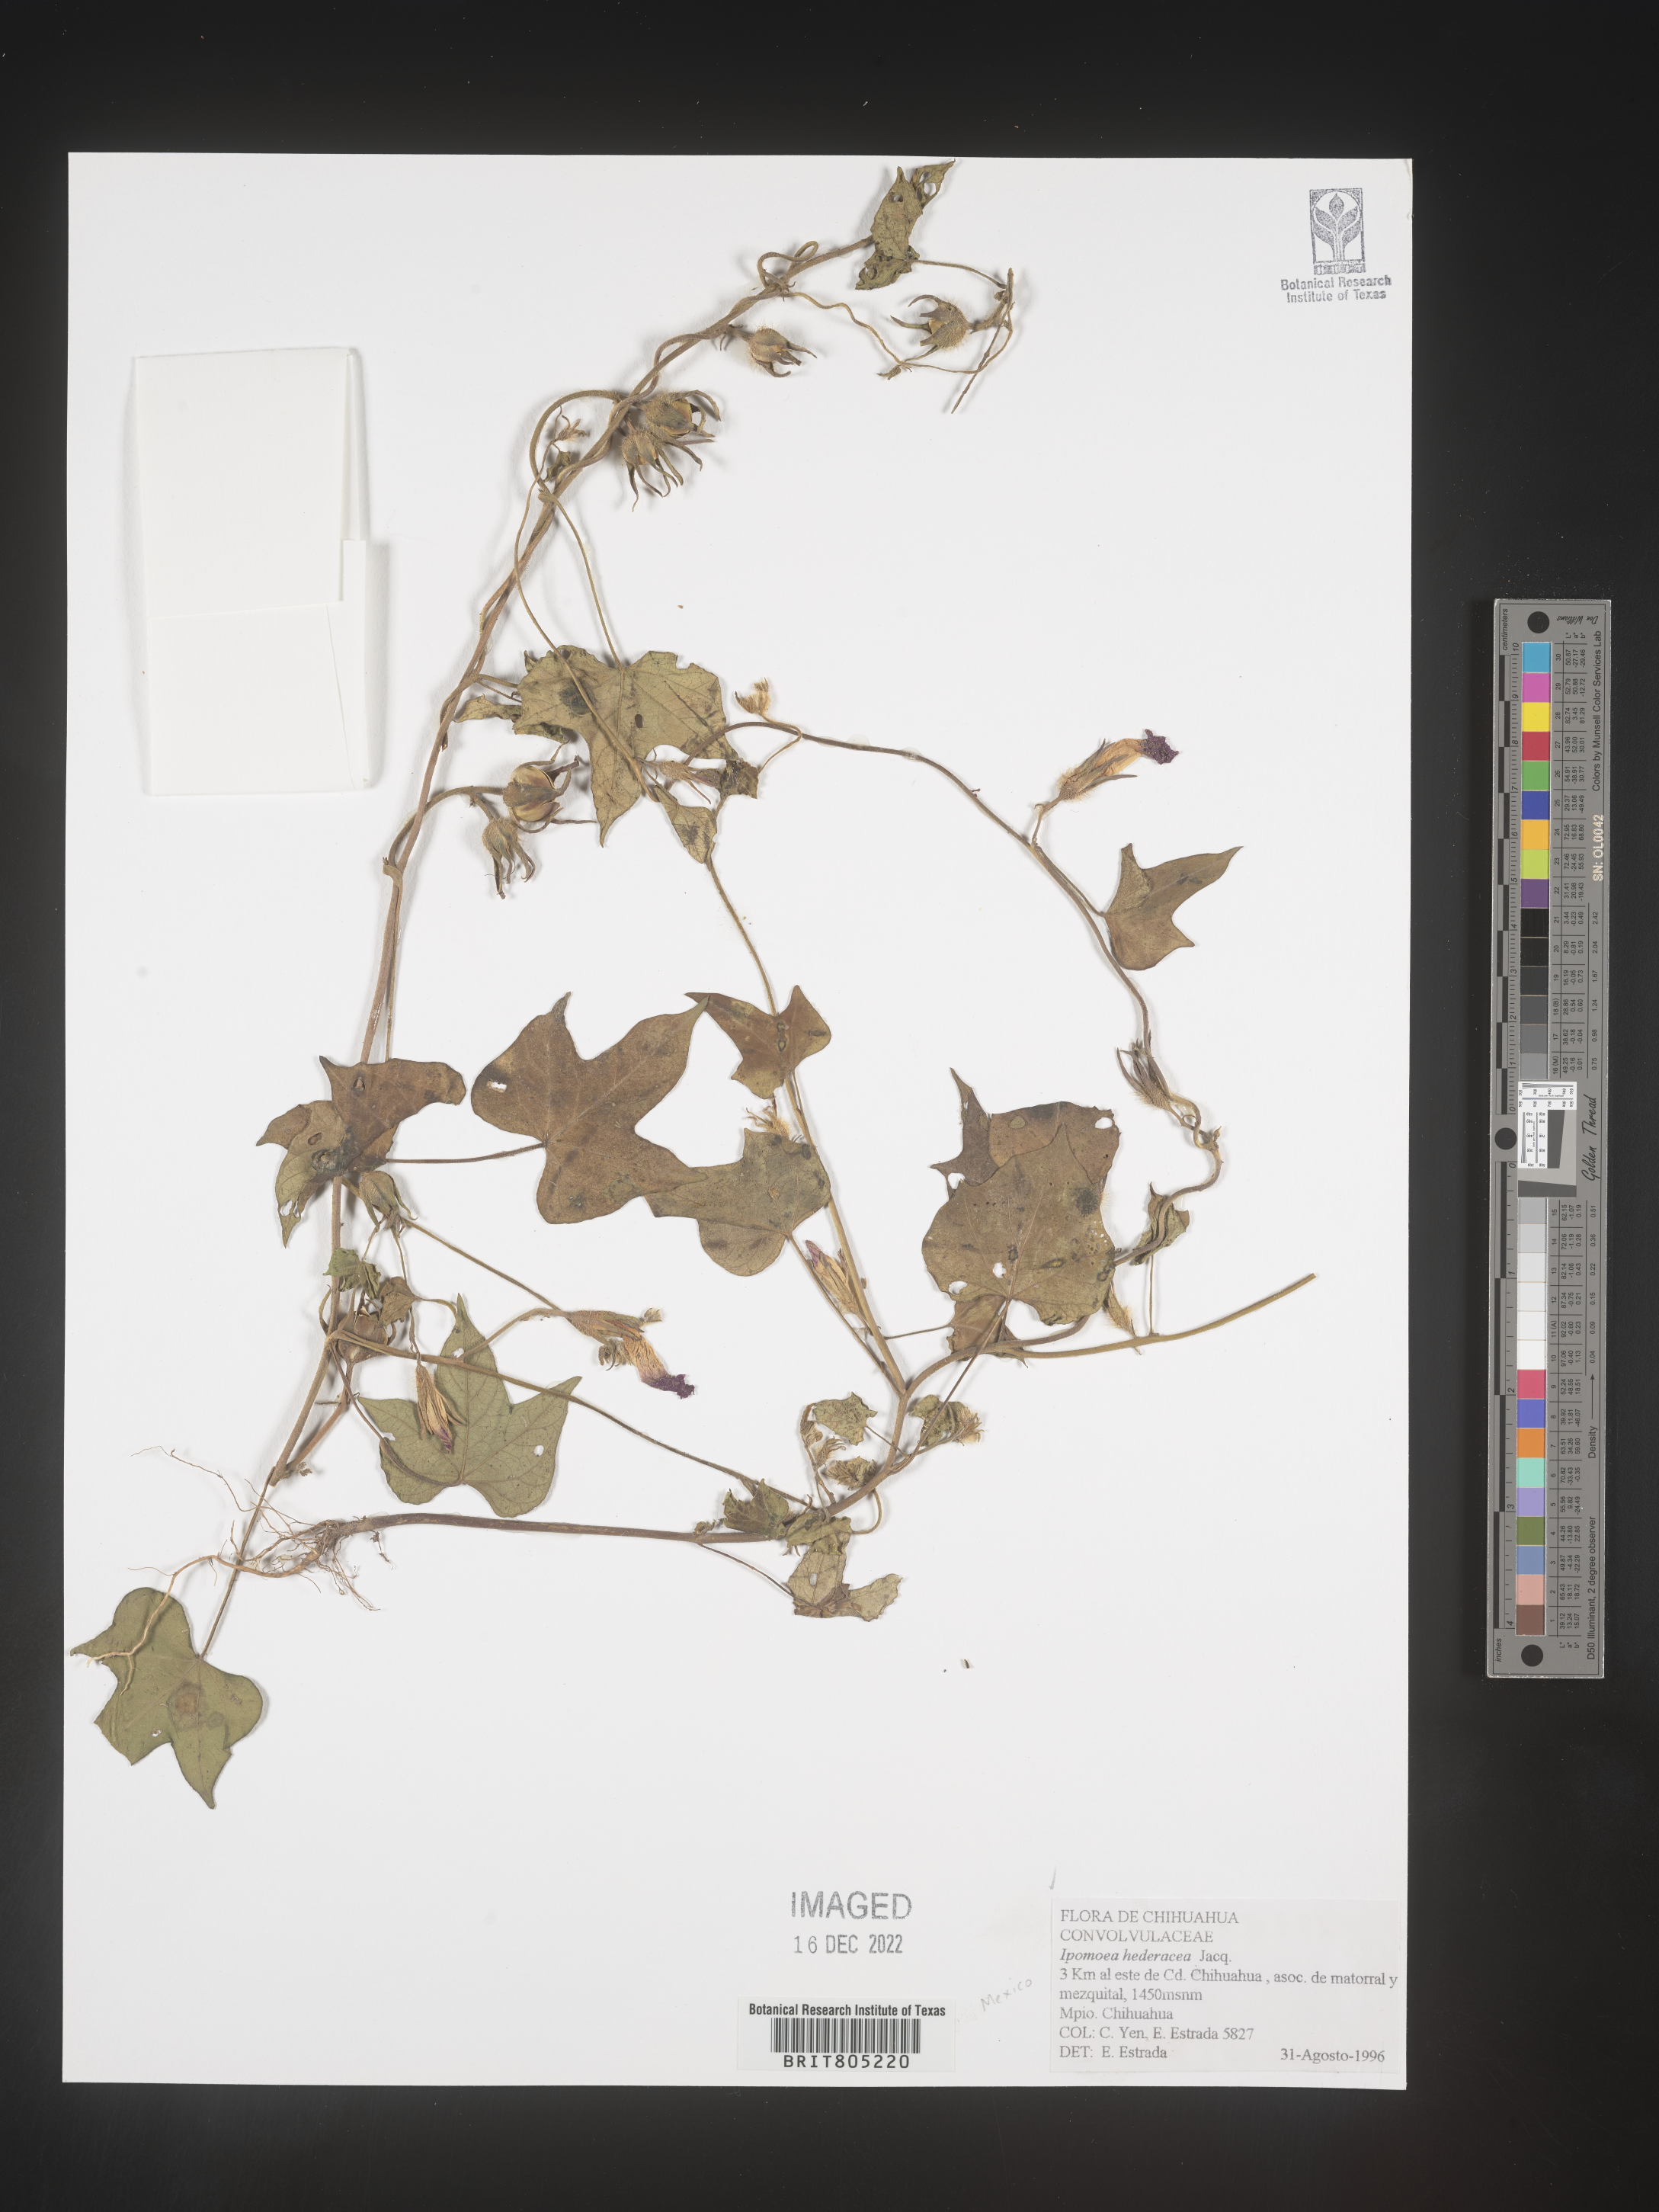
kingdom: Plantae
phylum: Tracheophyta
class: Magnoliopsida
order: Solanales
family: Convolvulaceae
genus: Ipomoea
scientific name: Ipomoea
